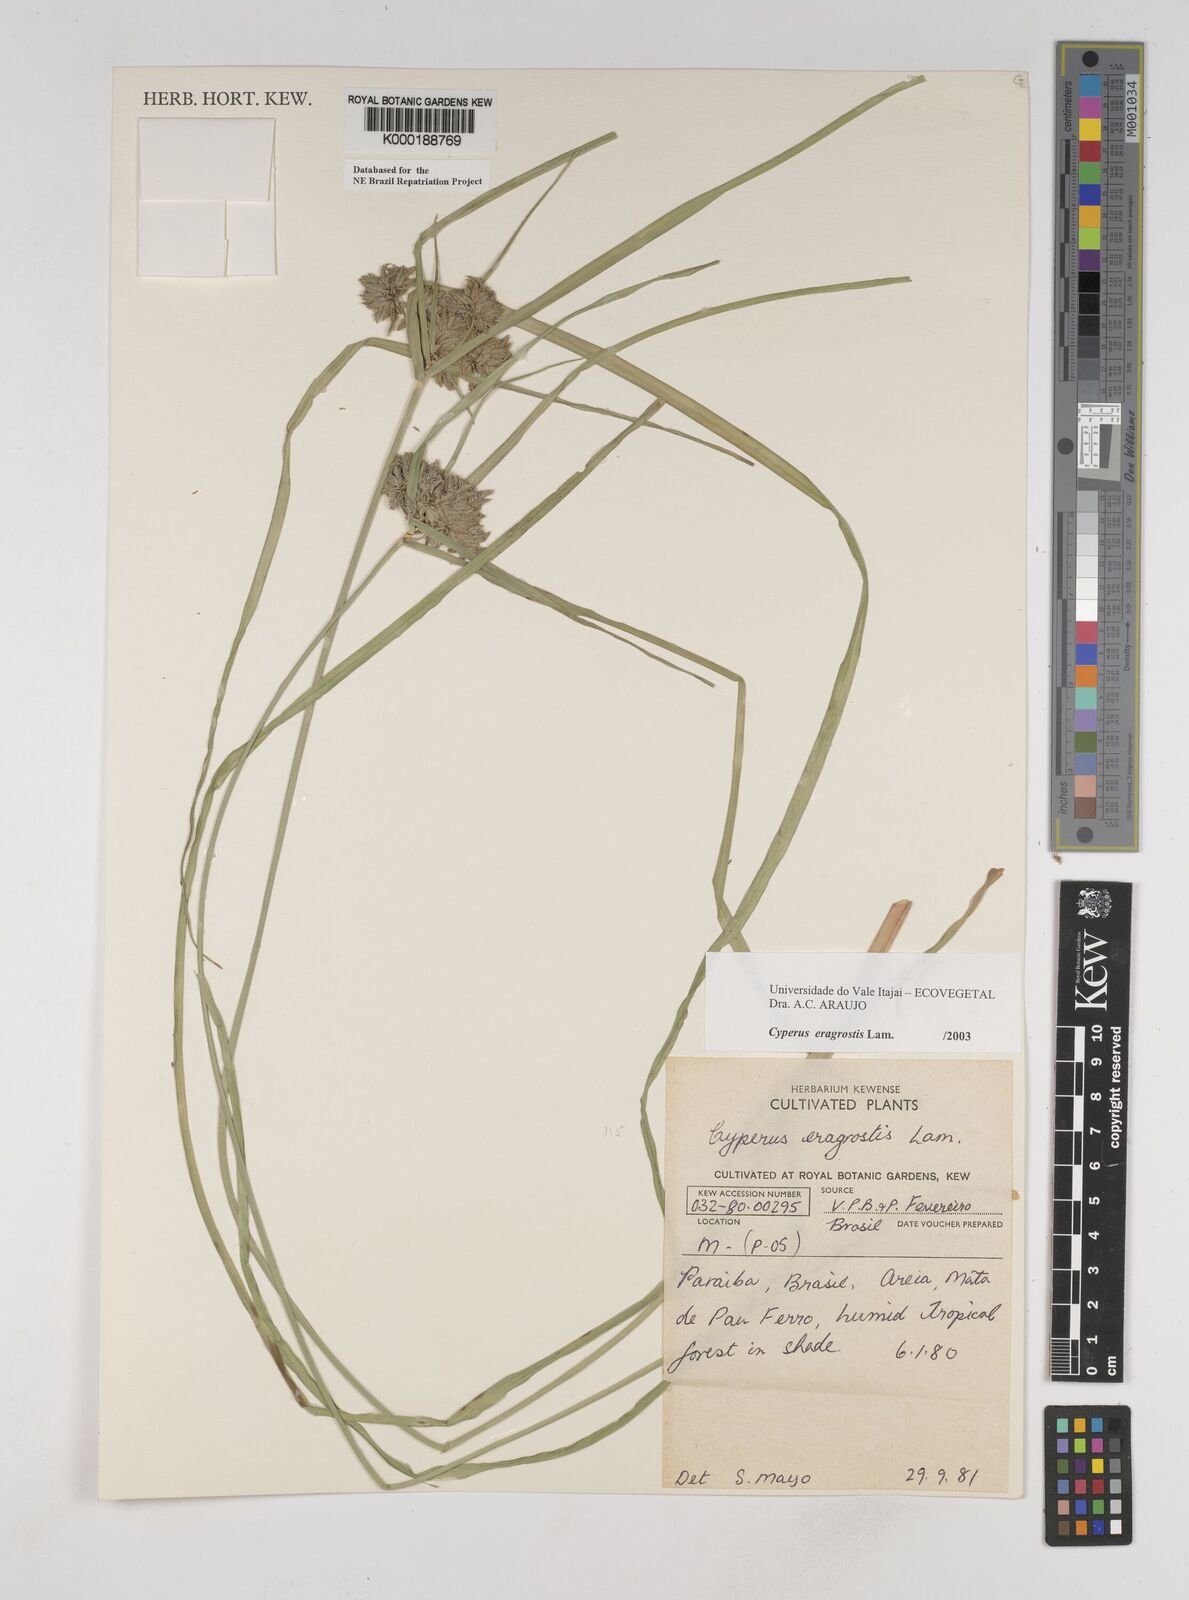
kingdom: Plantae
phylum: Tracheophyta
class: Liliopsida
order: Poales
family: Cyperaceae
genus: Cyperus
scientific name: Cyperus eragrostis
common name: Tall flatsedge
